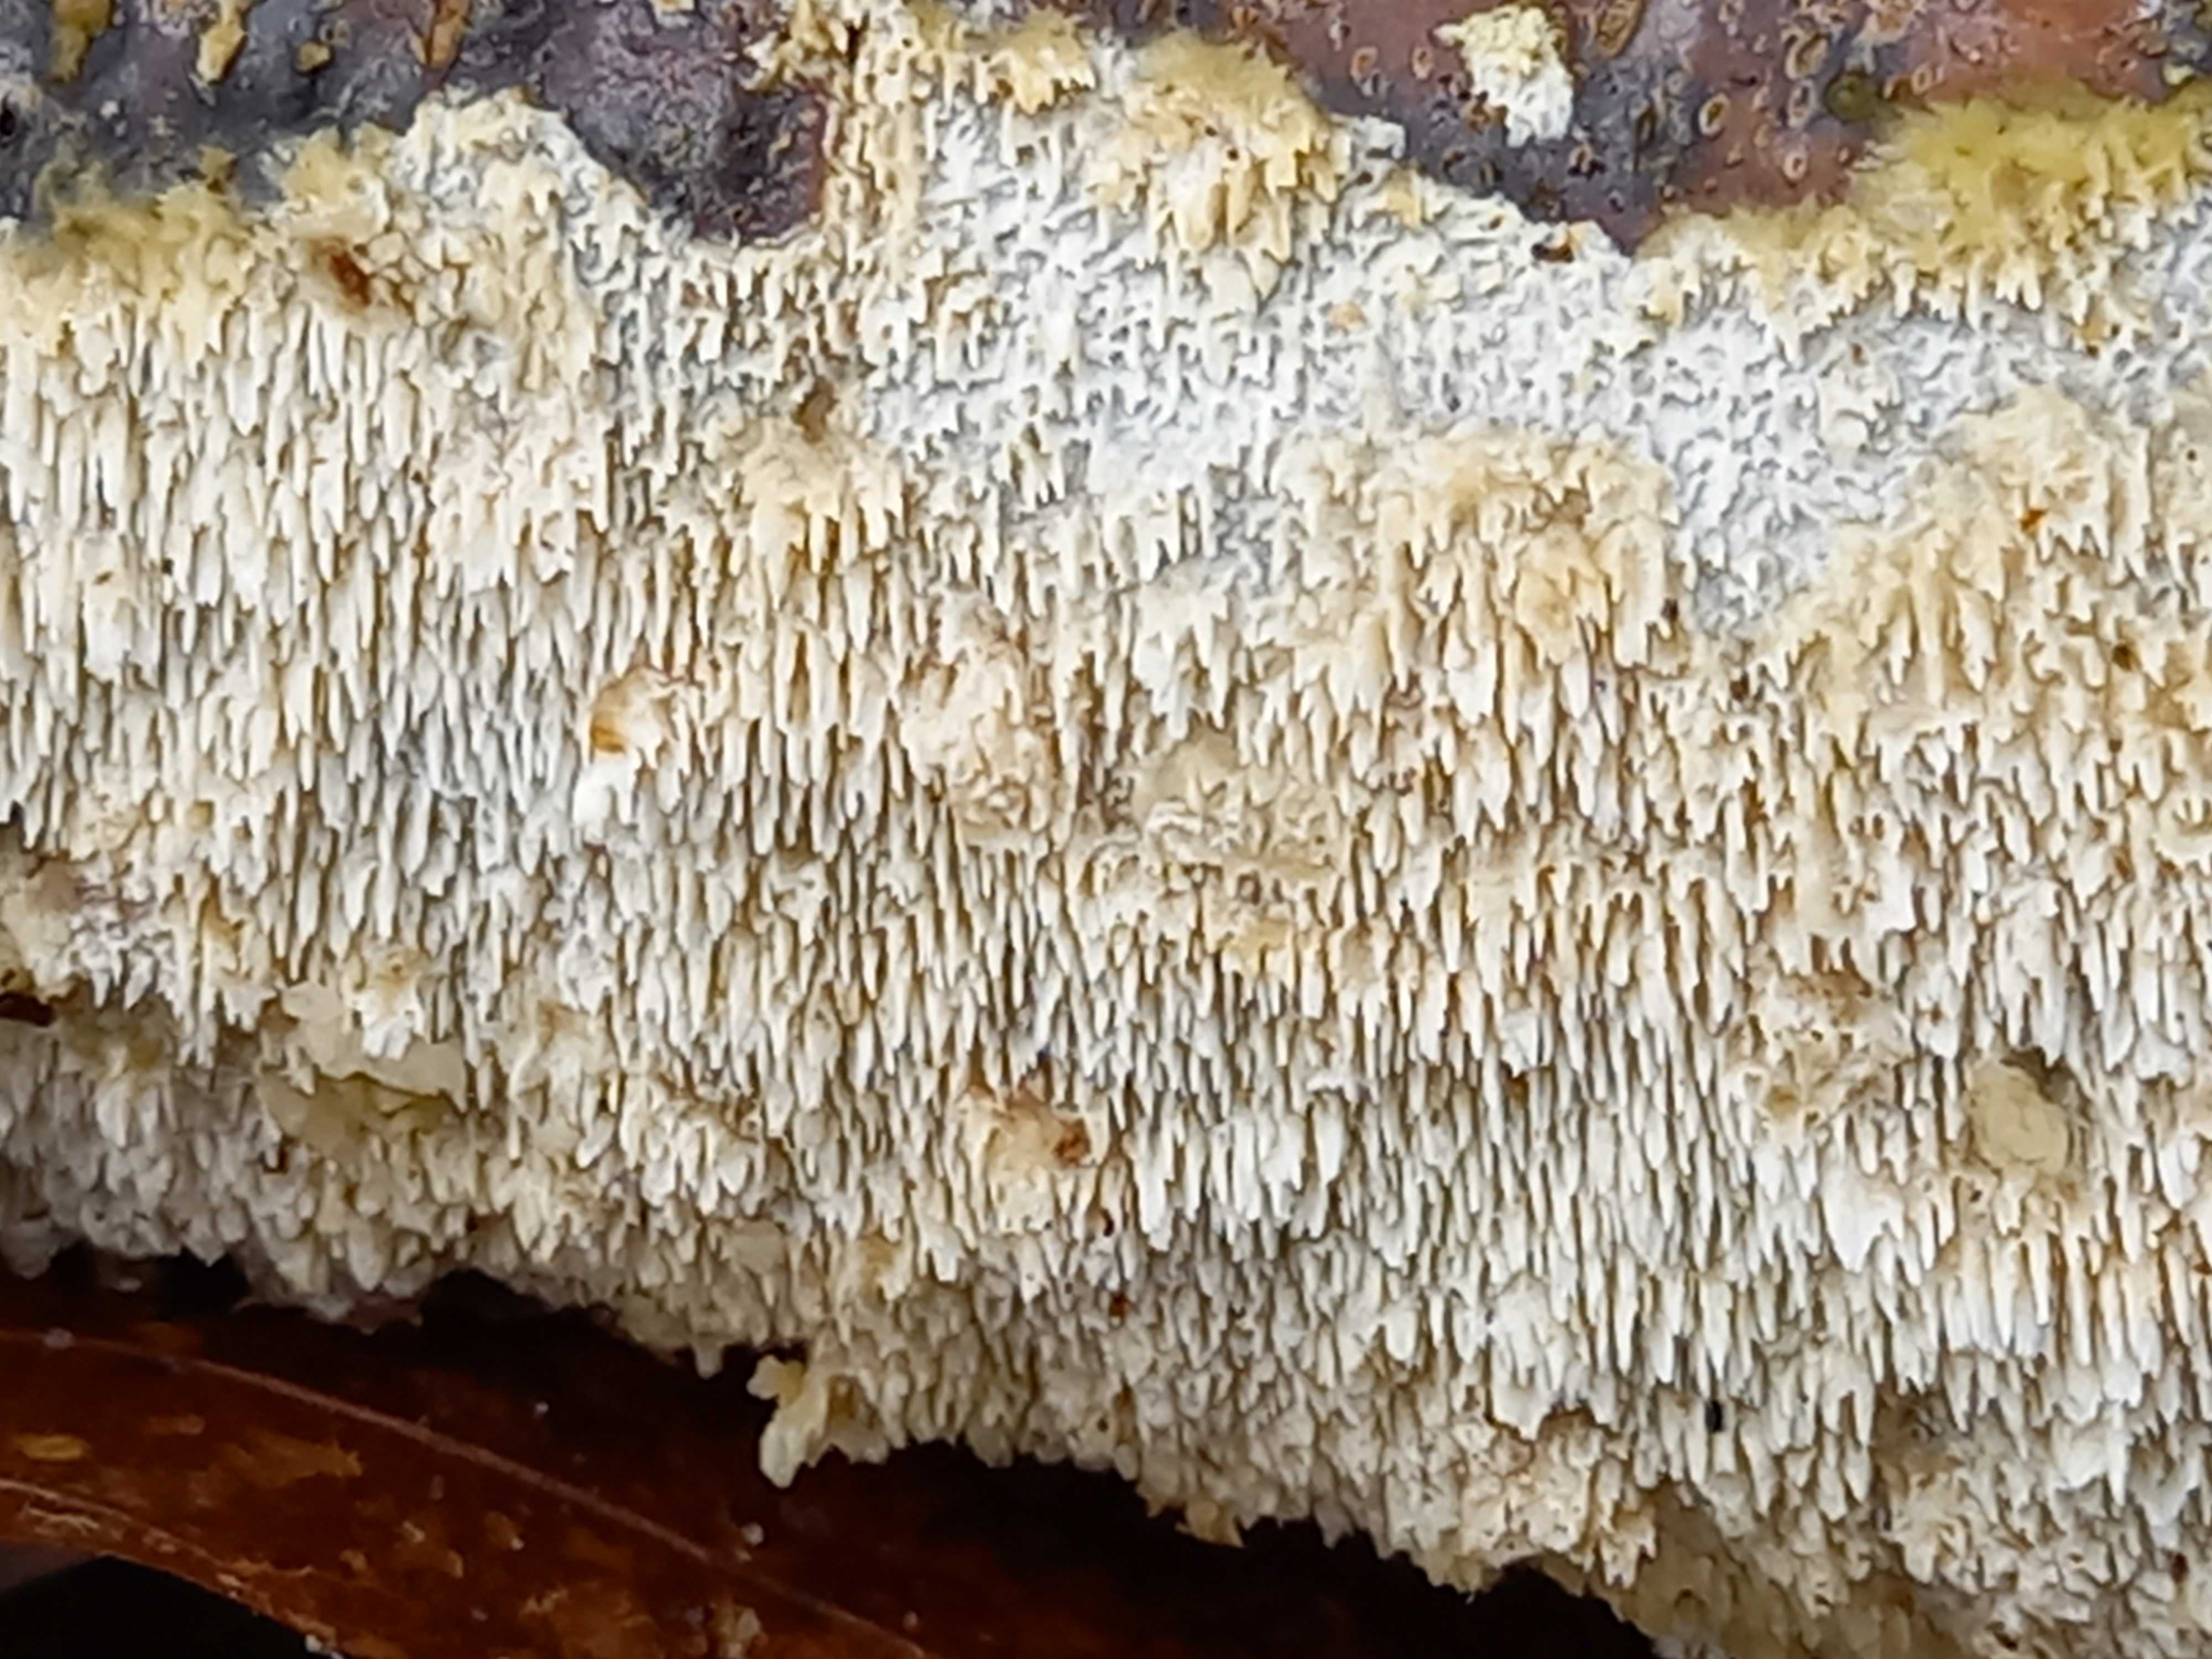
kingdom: Fungi
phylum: Basidiomycota
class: Agaricomycetes
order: Hymenochaetales
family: Schizoporaceae
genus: Schizopora
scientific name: Schizopora paradoxa
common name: hvid tandsvamp
